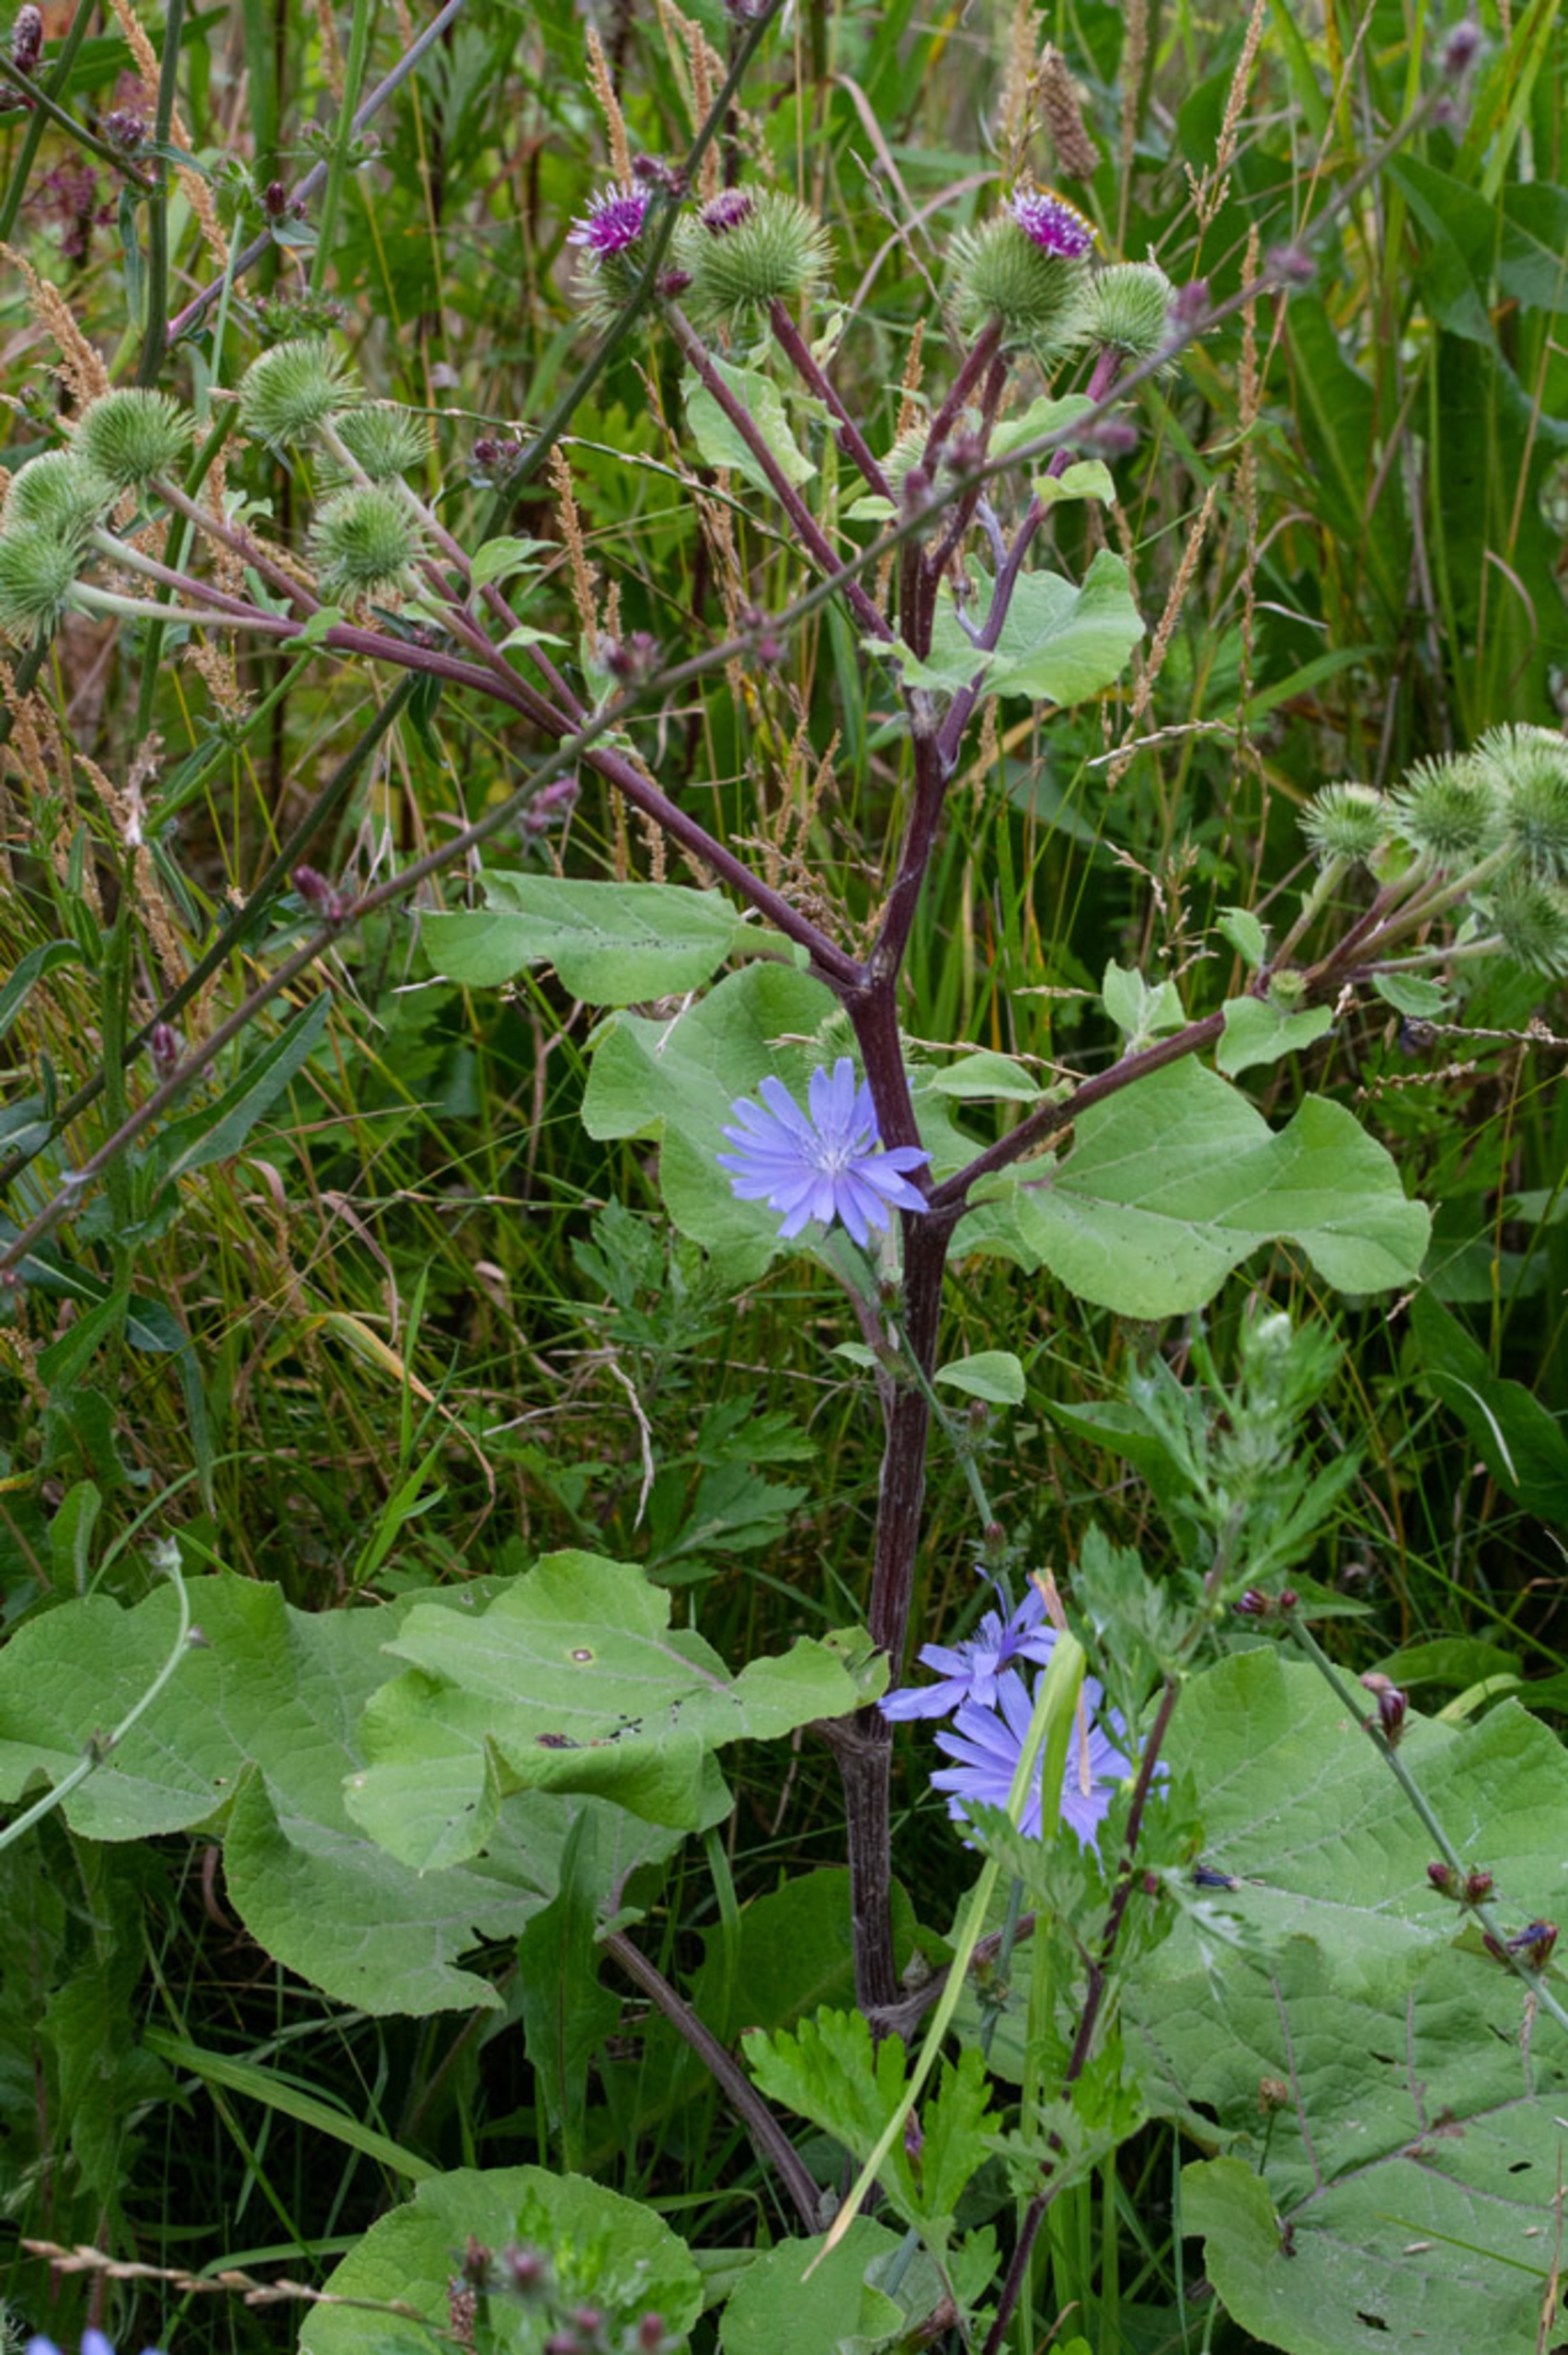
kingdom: Plantae
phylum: Tracheophyta
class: Magnoliopsida
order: Asterales
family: Asteraceae
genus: Arctium
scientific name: Arctium lappa
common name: Glat burre
